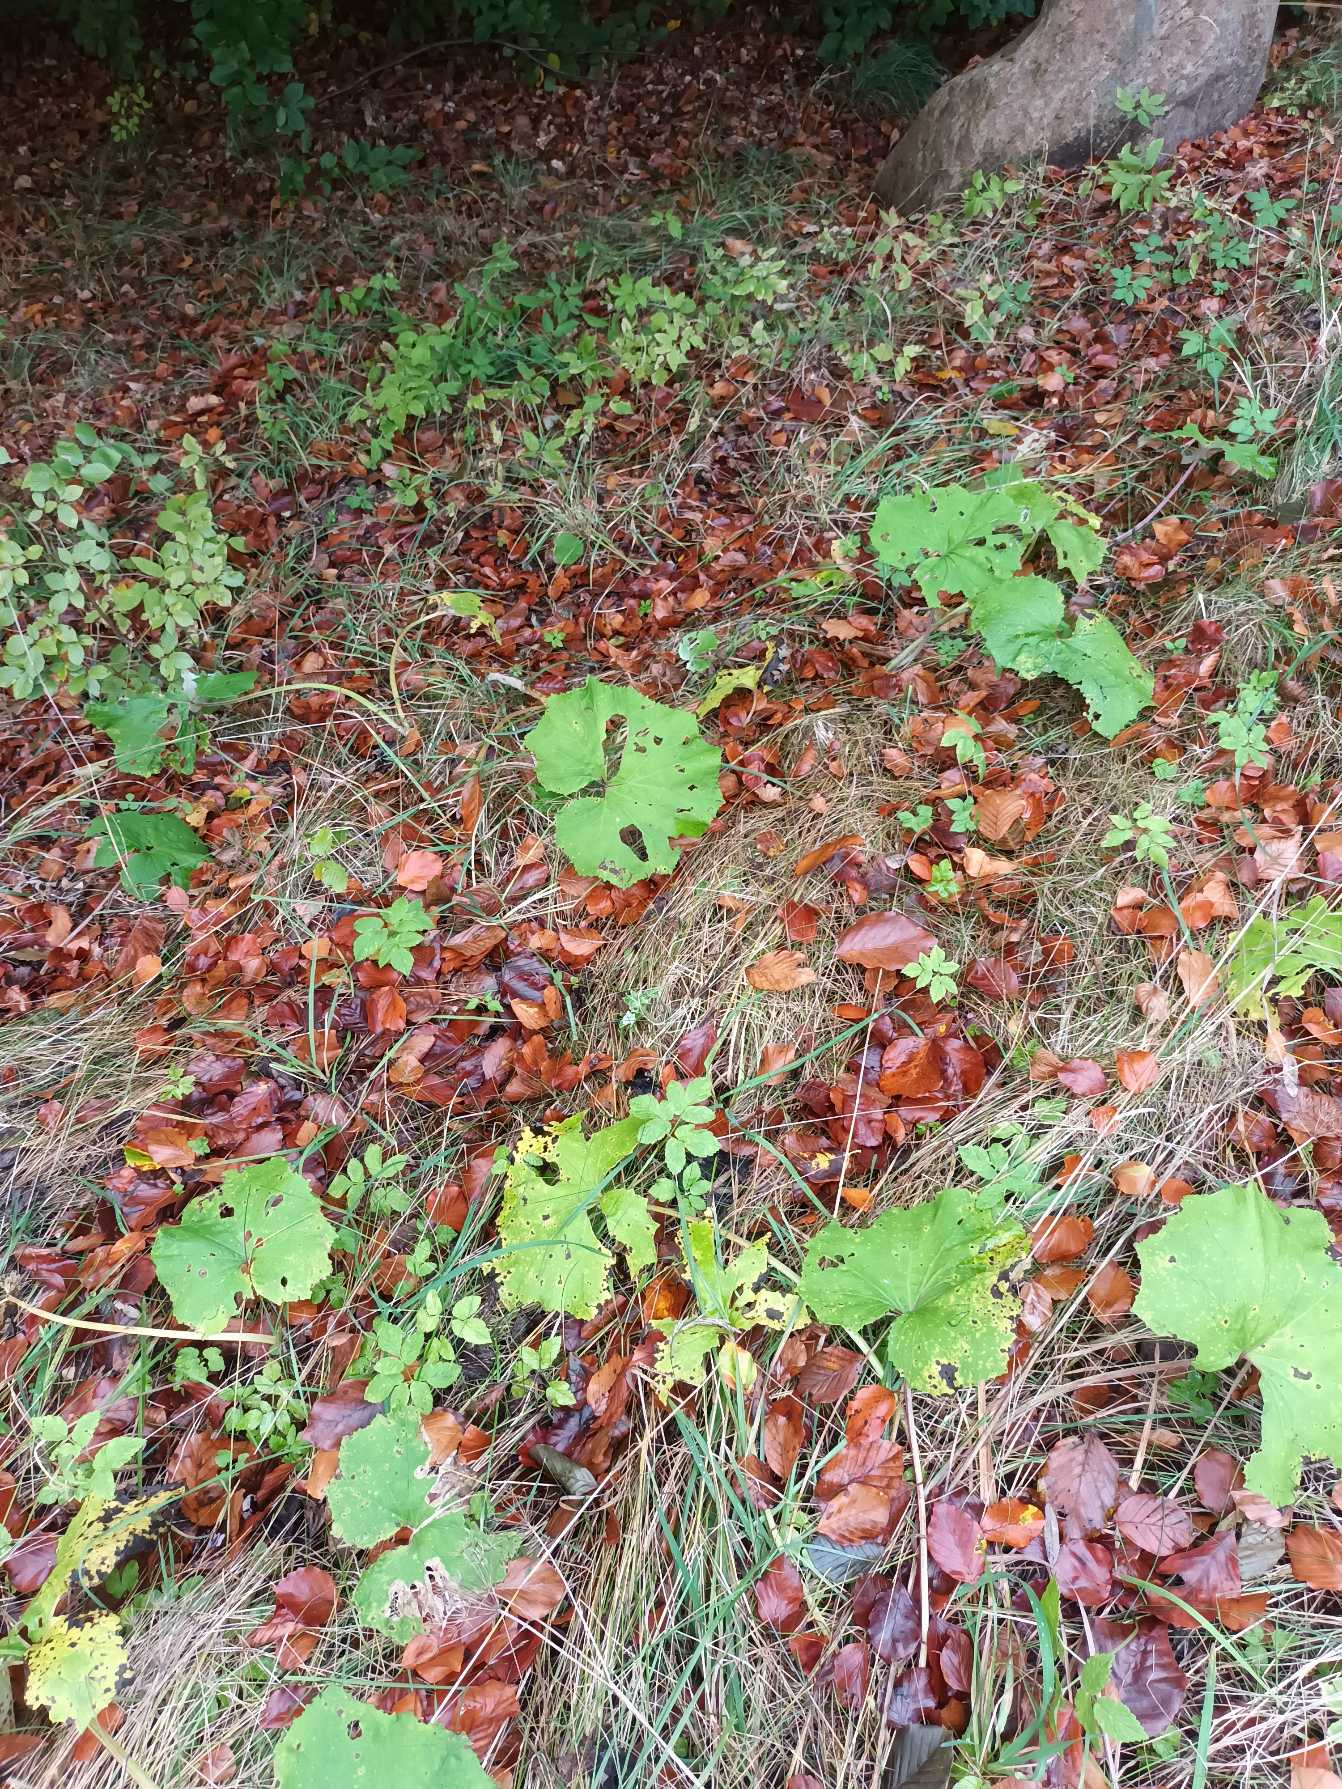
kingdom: Plantae
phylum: Tracheophyta
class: Magnoliopsida
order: Asterales
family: Asteraceae
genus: Tussilago
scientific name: Tussilago farfara
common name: Følfod
